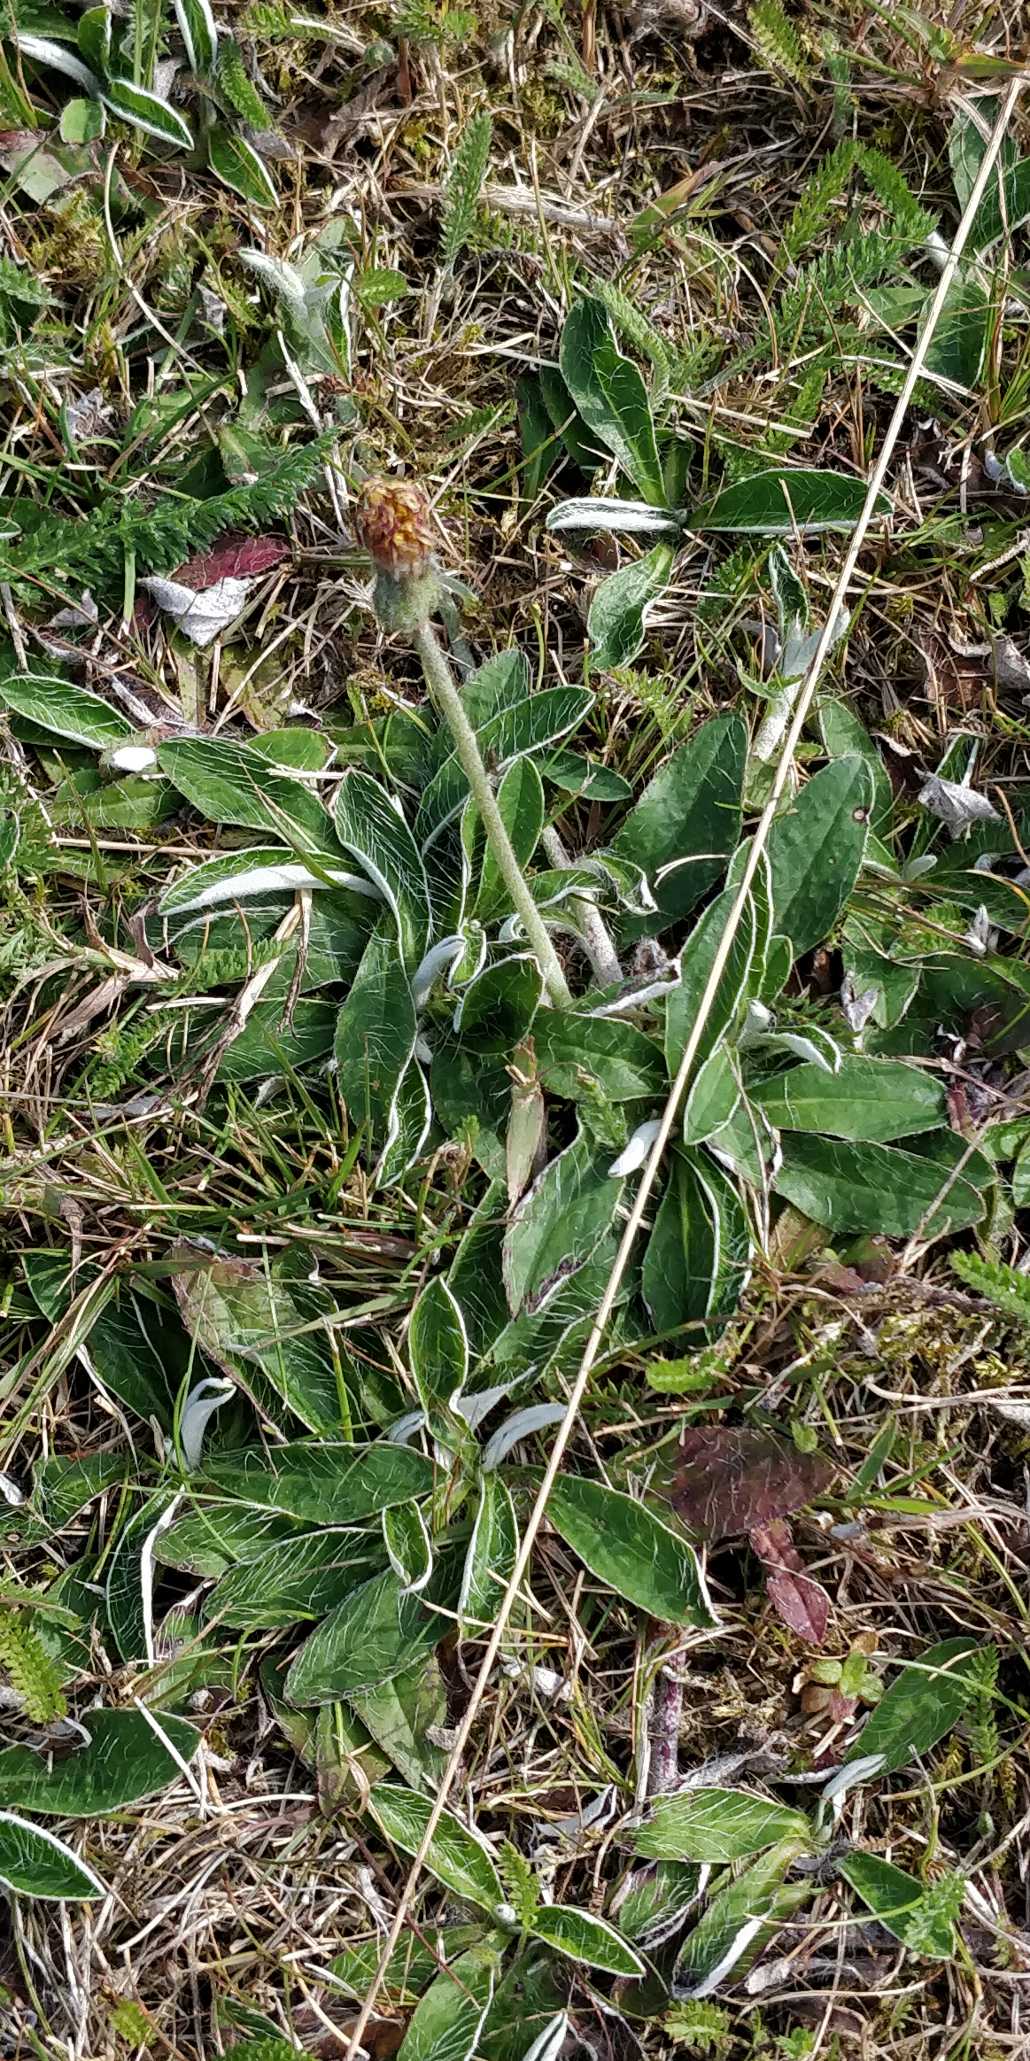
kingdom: Plantae
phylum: Tracheophyta
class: Magnoliopsida
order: Asterales
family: Asteraceae
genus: Pilosella
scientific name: Pilosella officinarum
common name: Håret høgeurt
